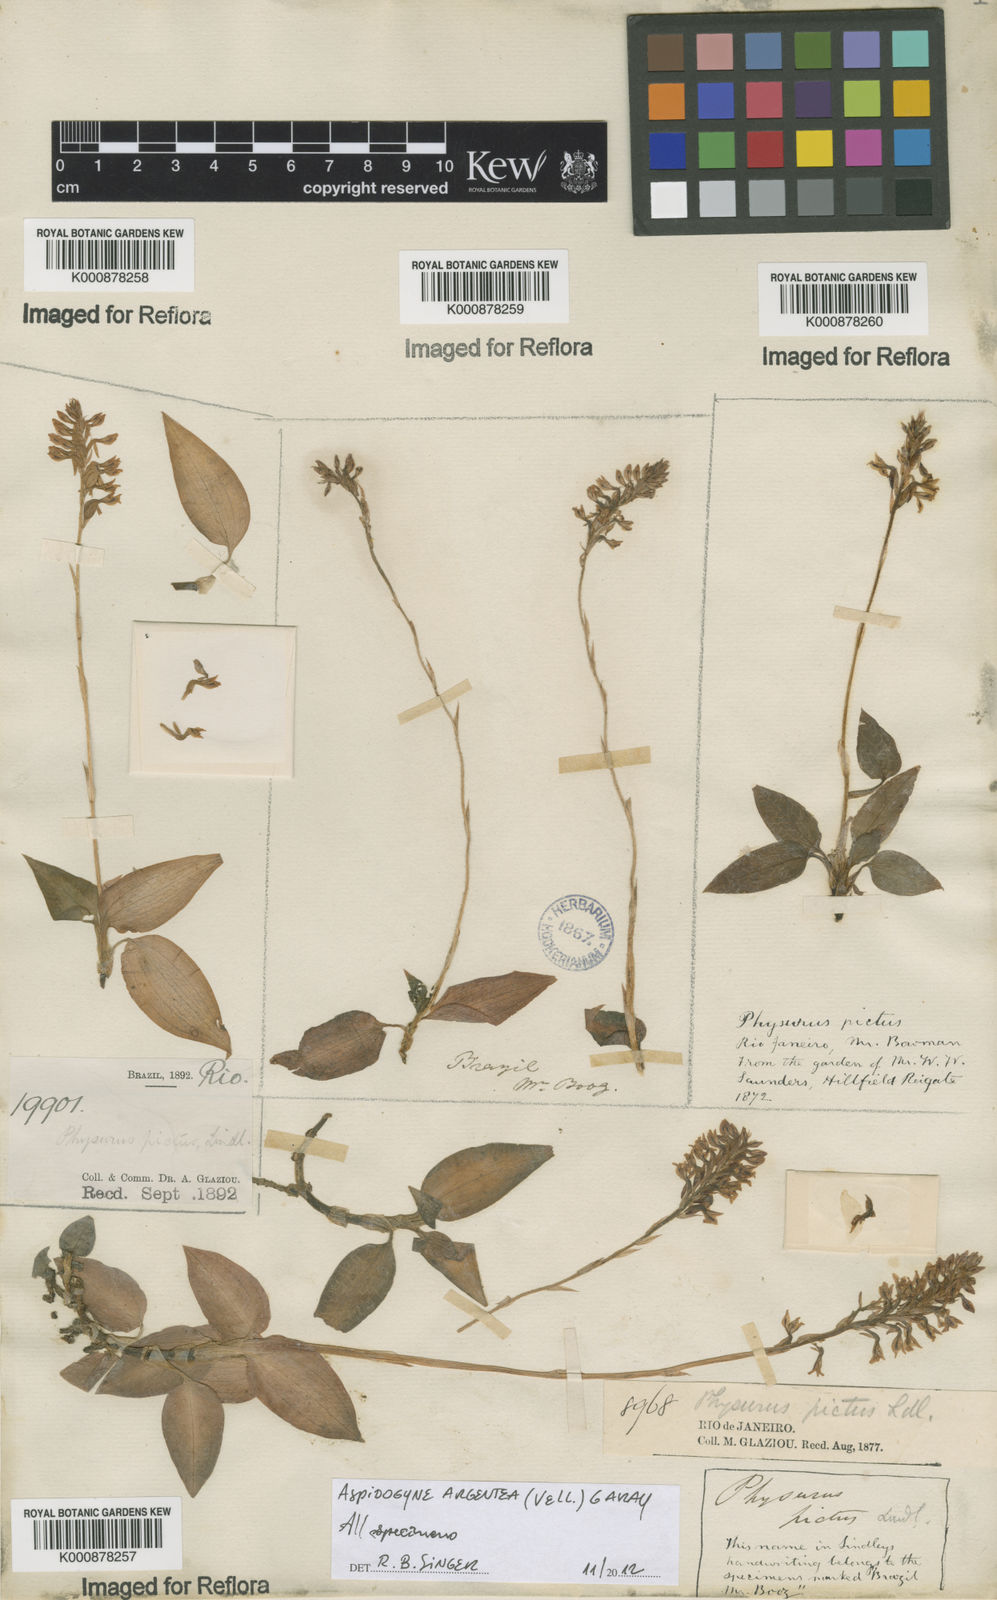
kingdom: Plantae
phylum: Tracheophyta
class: Liliopsida
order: Asparagales
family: Orchidaceae
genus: Aspidogyne
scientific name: Aspidogyne argentea
